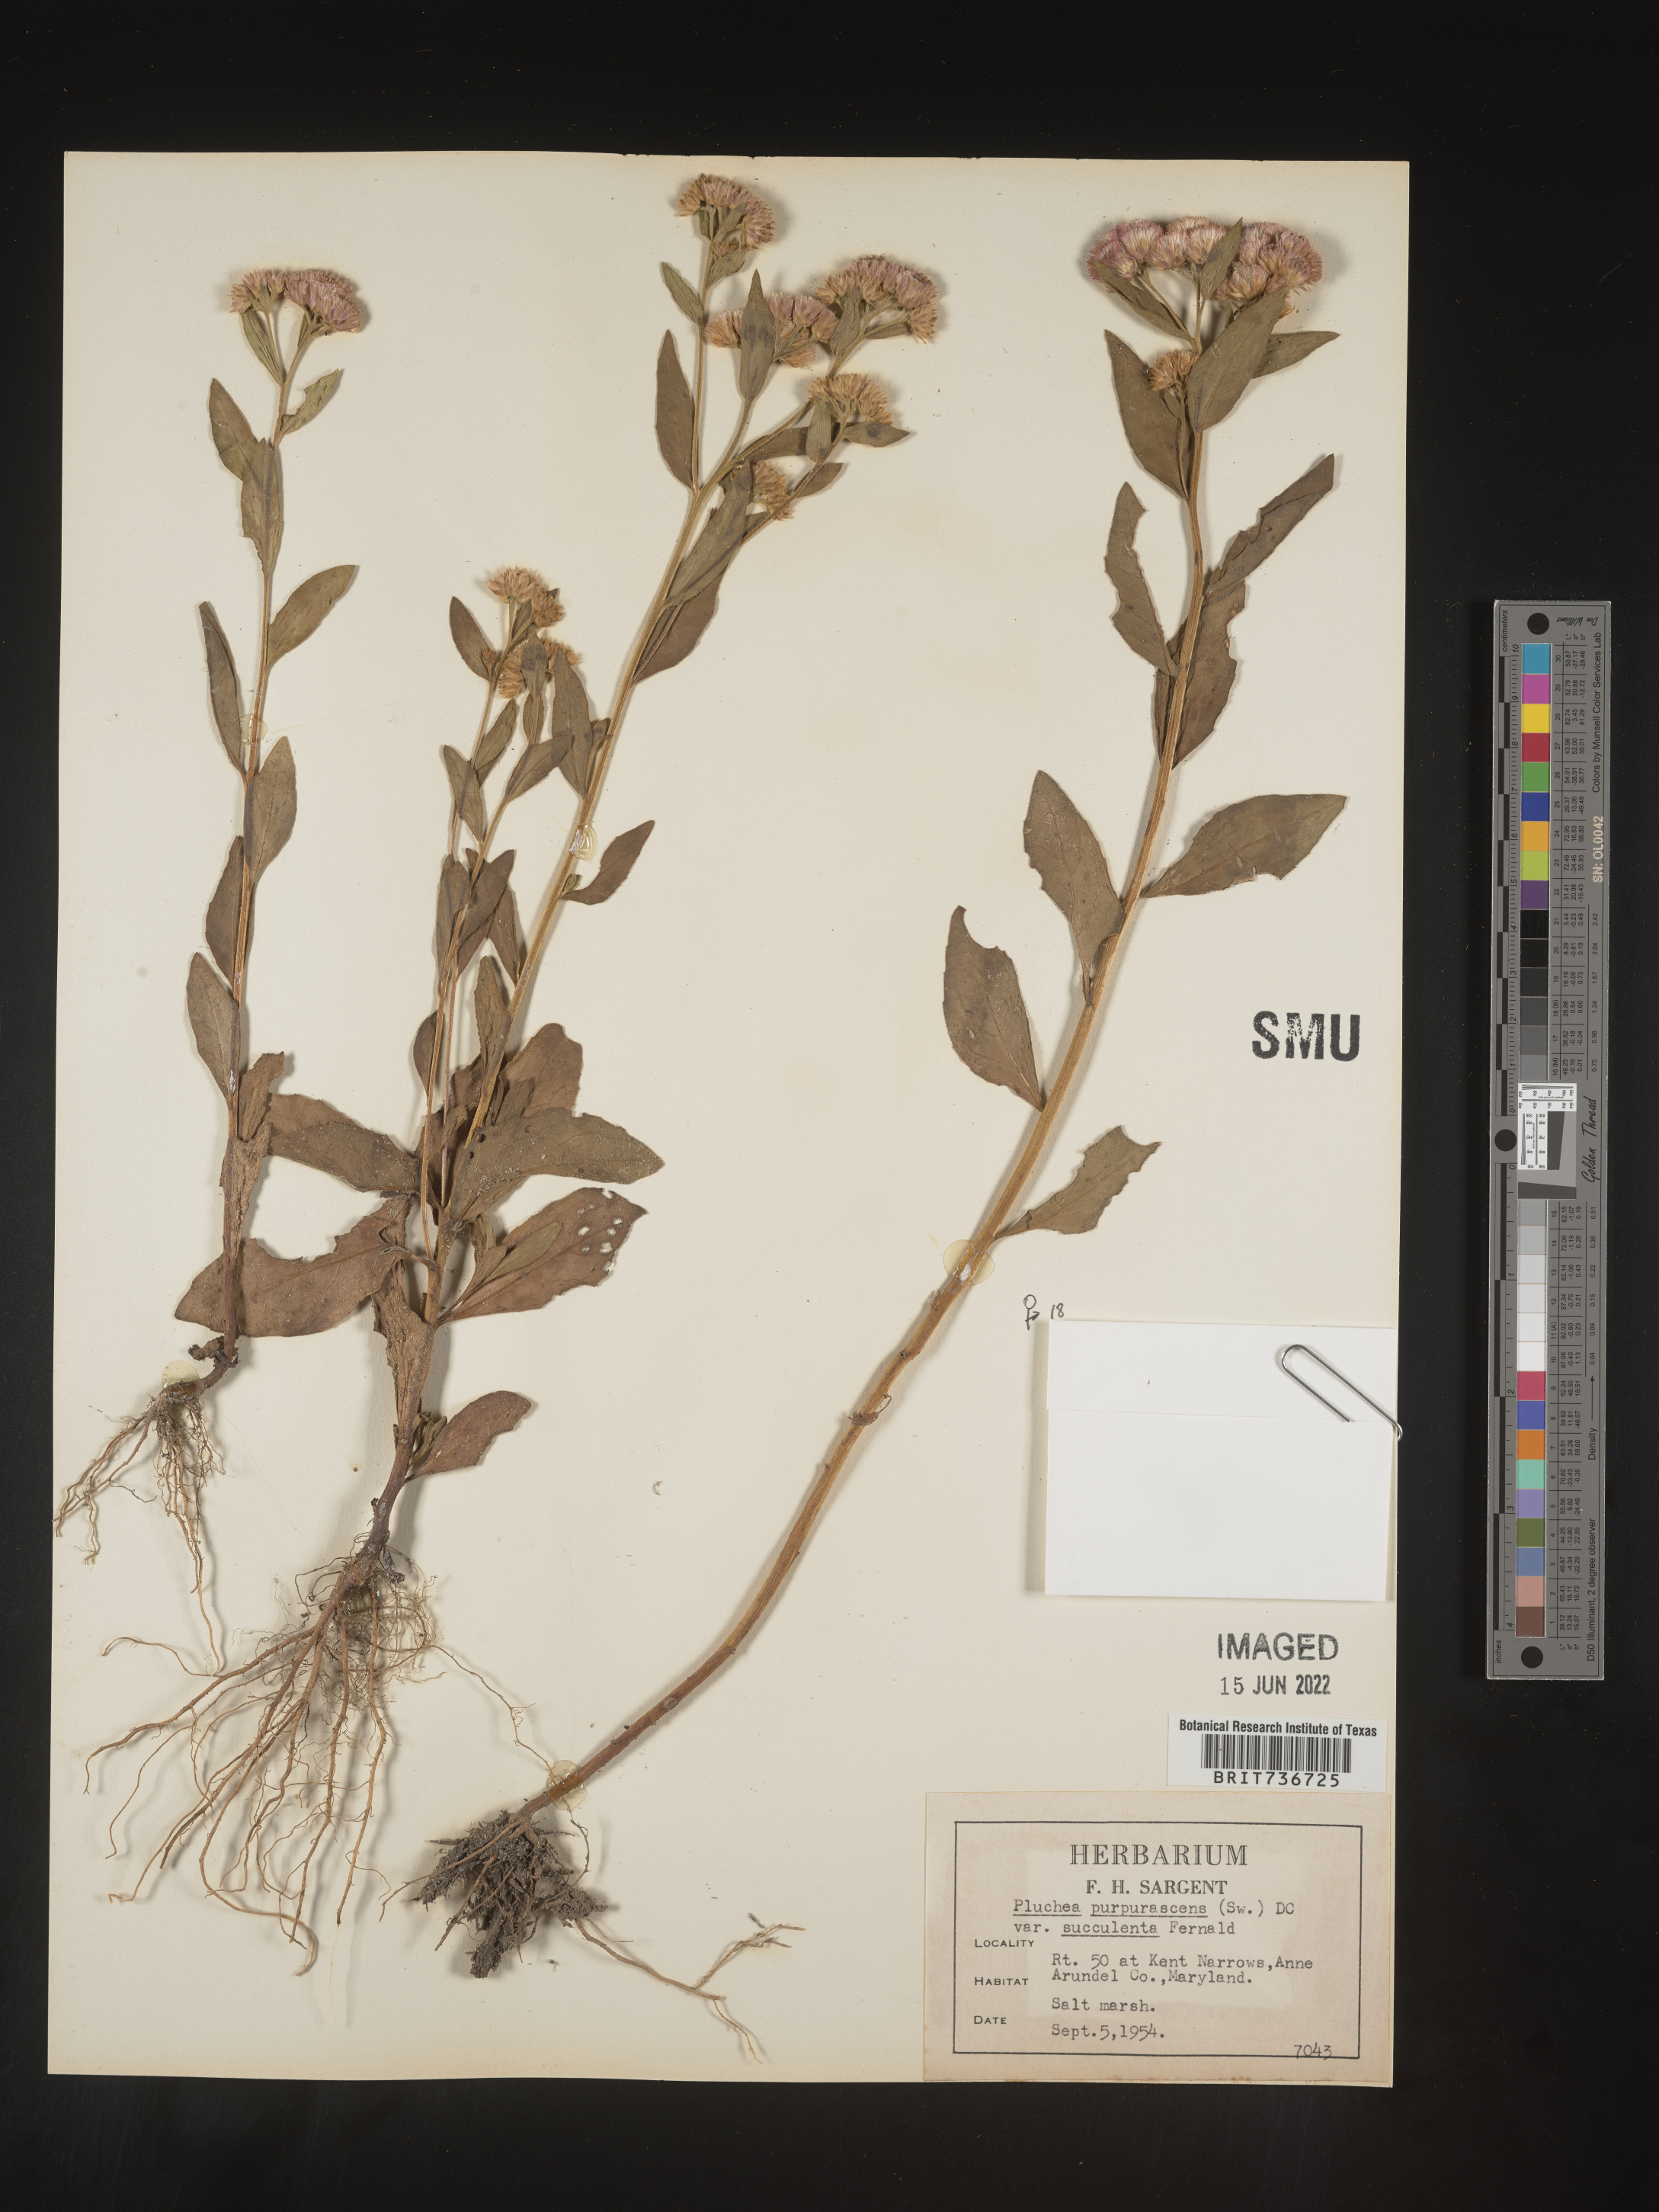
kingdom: Plantae
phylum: Tracheophyta
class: Magnoliopsida
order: Asterales
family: Asteraceae
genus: Pluchea
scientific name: Pluchea odorata
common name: Saltmarsh fleabane
